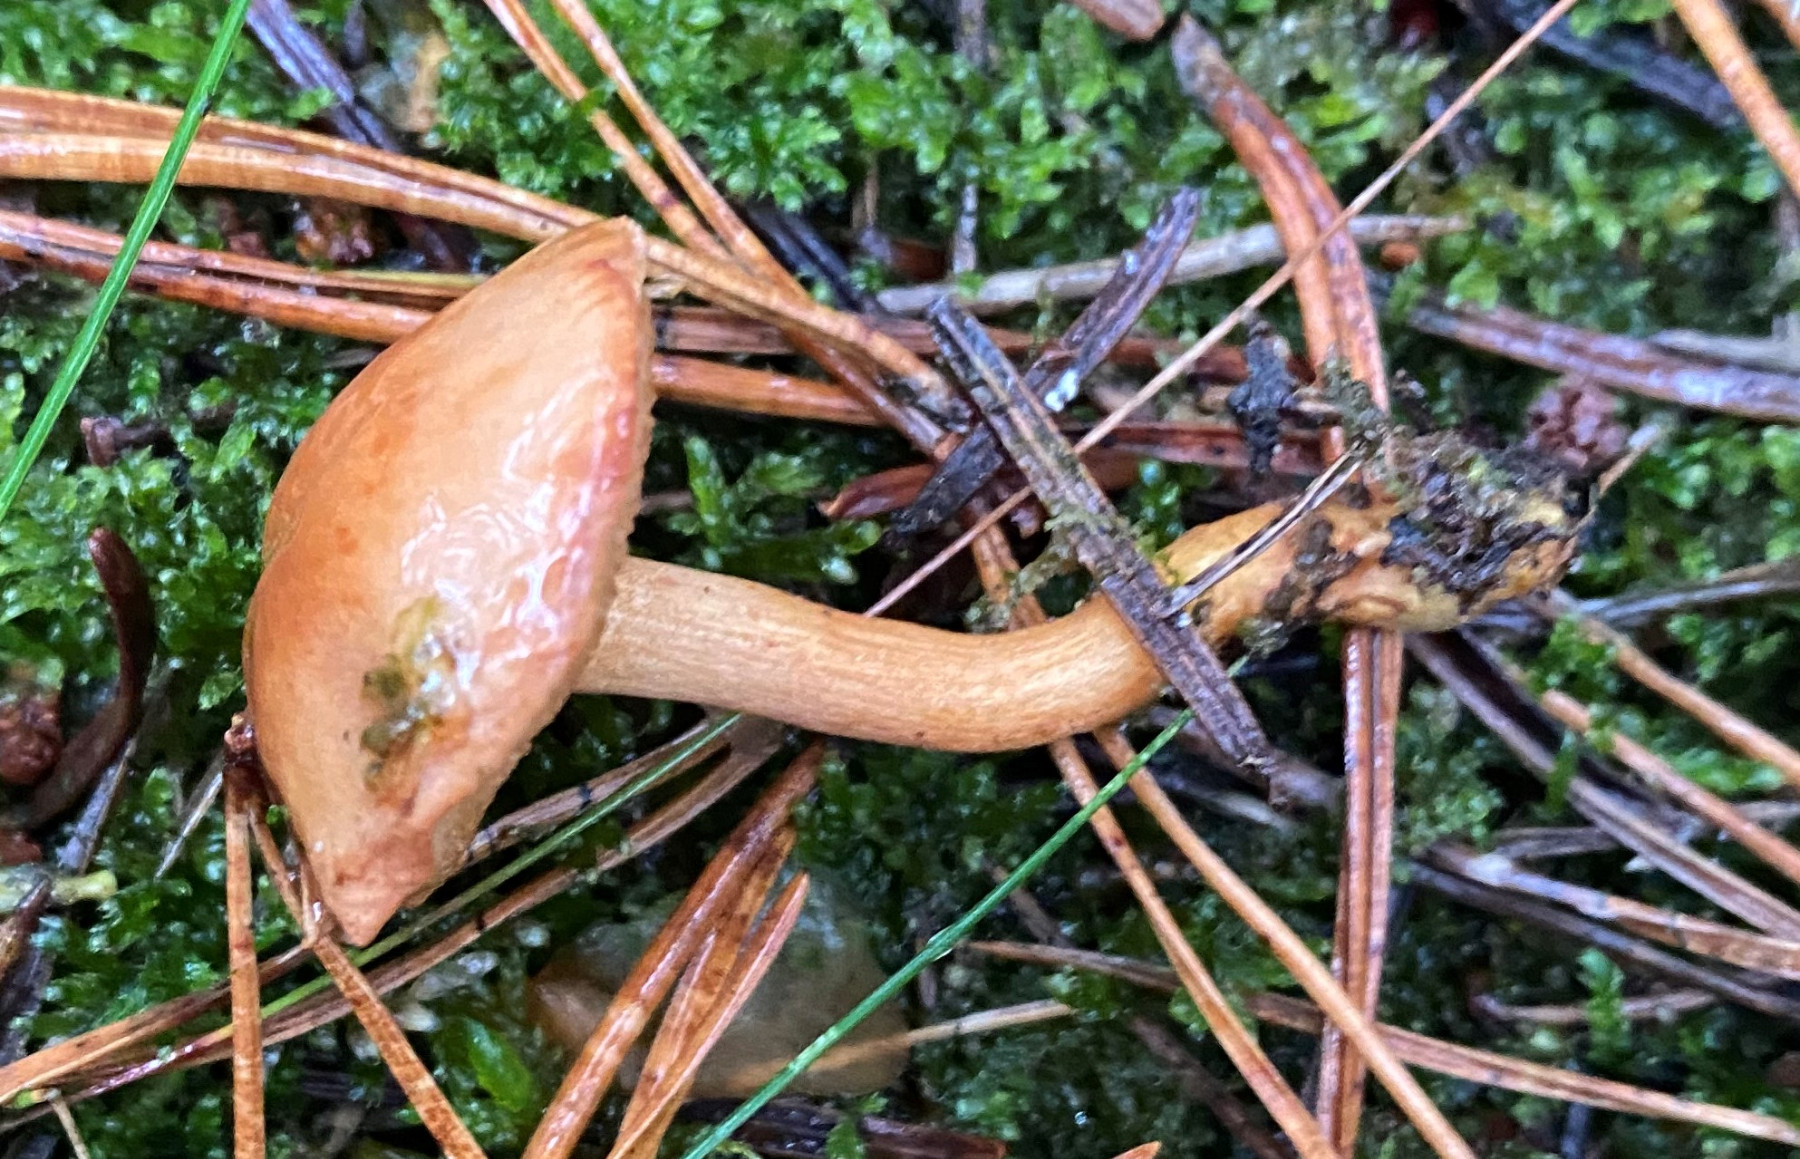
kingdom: Fungi
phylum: Basidiomycota
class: Agaricomycetes
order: Boletales
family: Boletaceae
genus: Chalciporus
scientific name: Chalciporus piperatus
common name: peberrørhat
